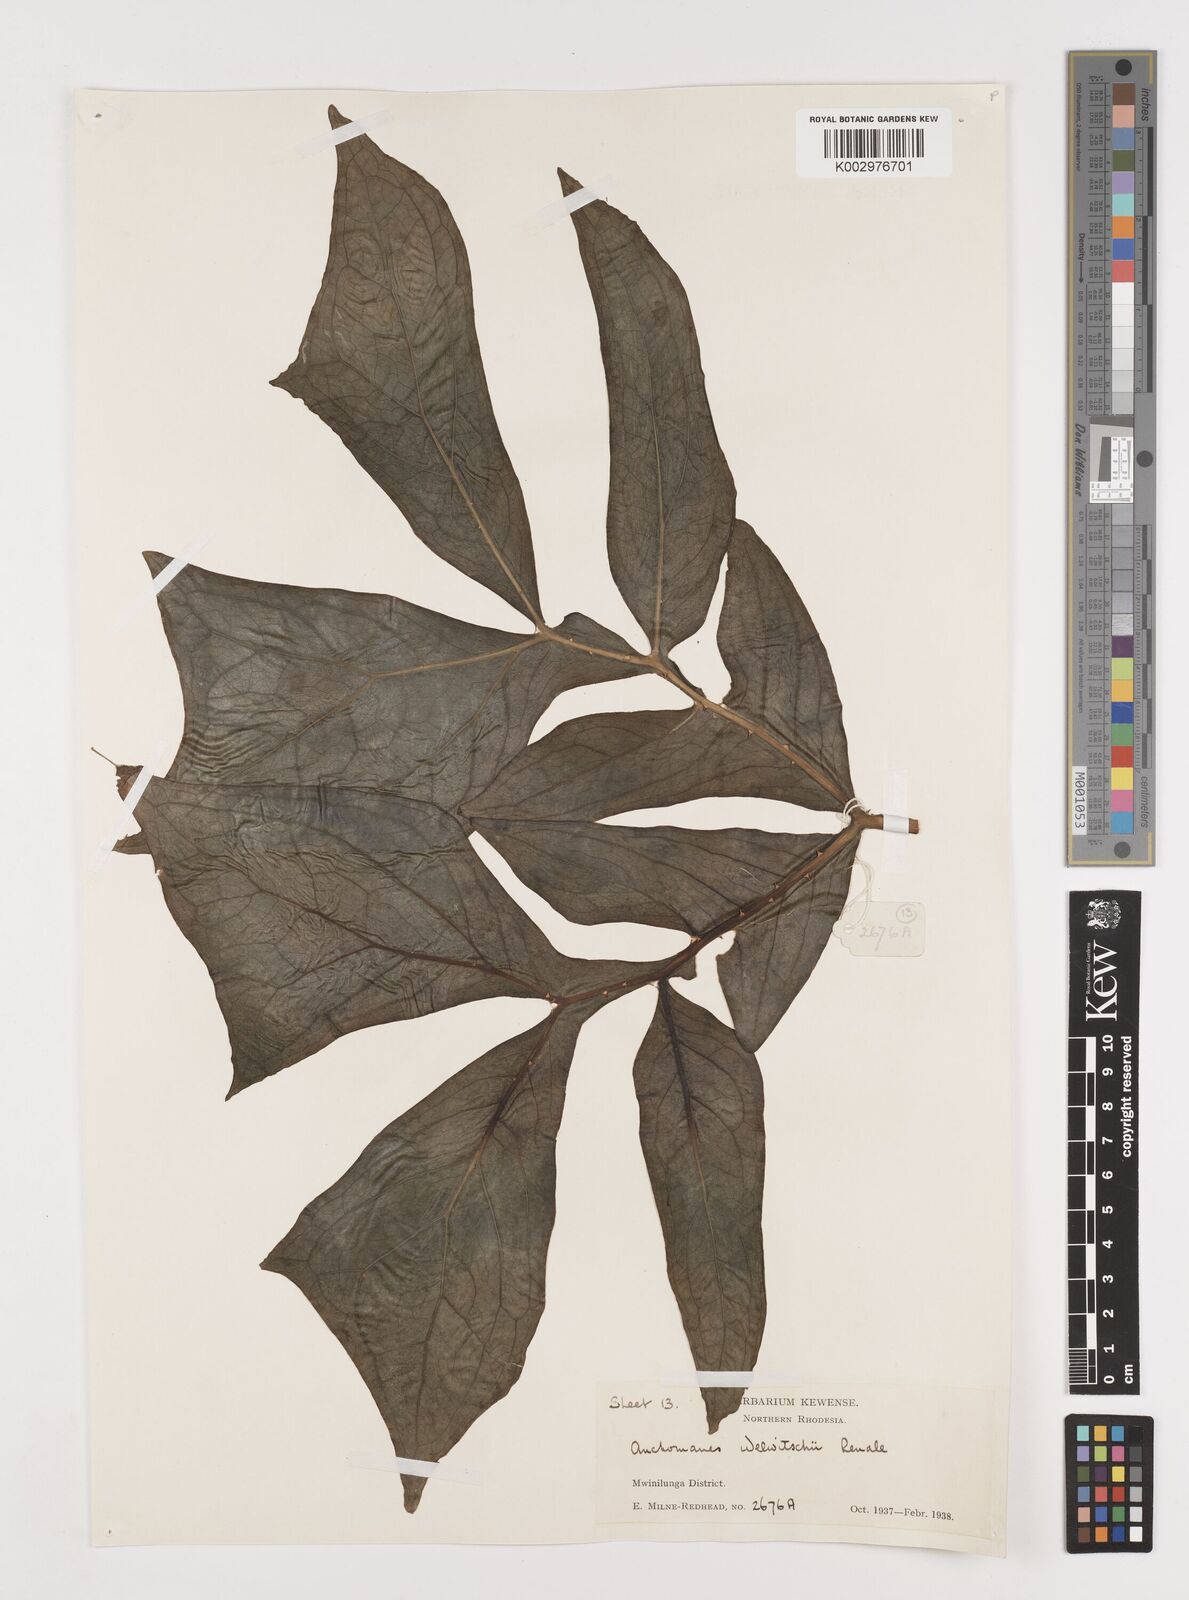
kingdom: Plantae
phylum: Tracheophyta
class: Liliopsida
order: Alismatales
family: Araceae
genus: Anchomanes
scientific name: Anchomanes difformis
